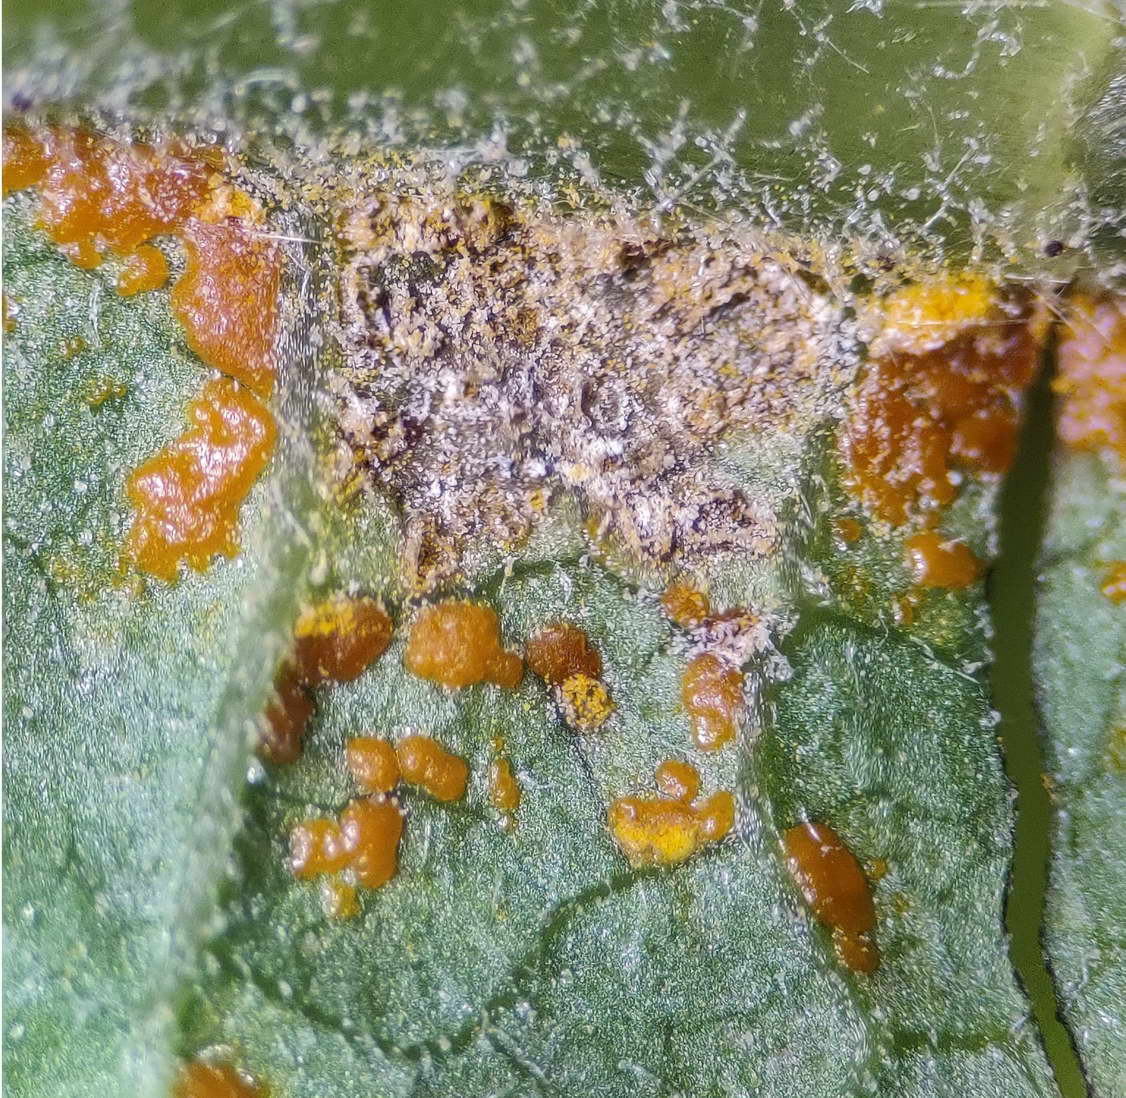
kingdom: Fungi
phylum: Basidiomycota
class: Pucciniomycetes
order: Pucciniales
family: Coleosporiaceae
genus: Coleosporium
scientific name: Coleosporium telekiae
